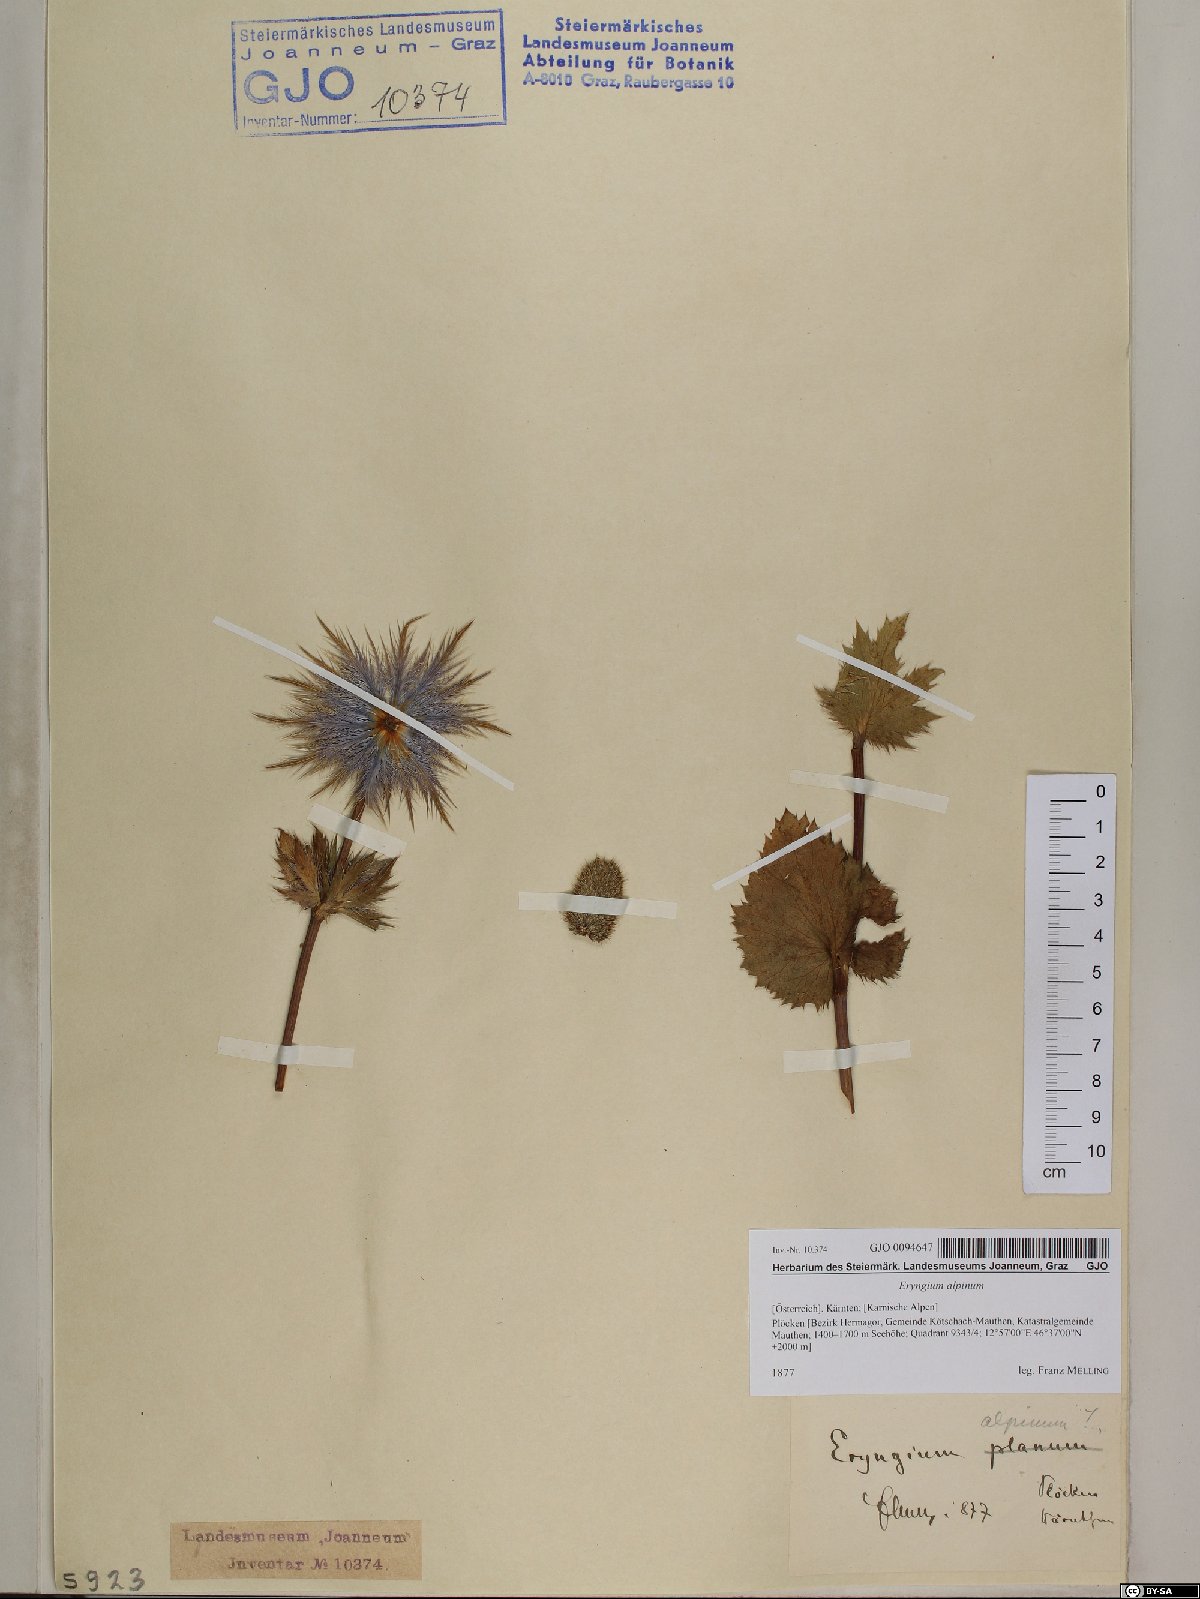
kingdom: Plantae
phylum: Tracheophyta
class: Magnoliopsida
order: Apiales
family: Apiaceae
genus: Eryngium
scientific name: Eryngium alpinum
